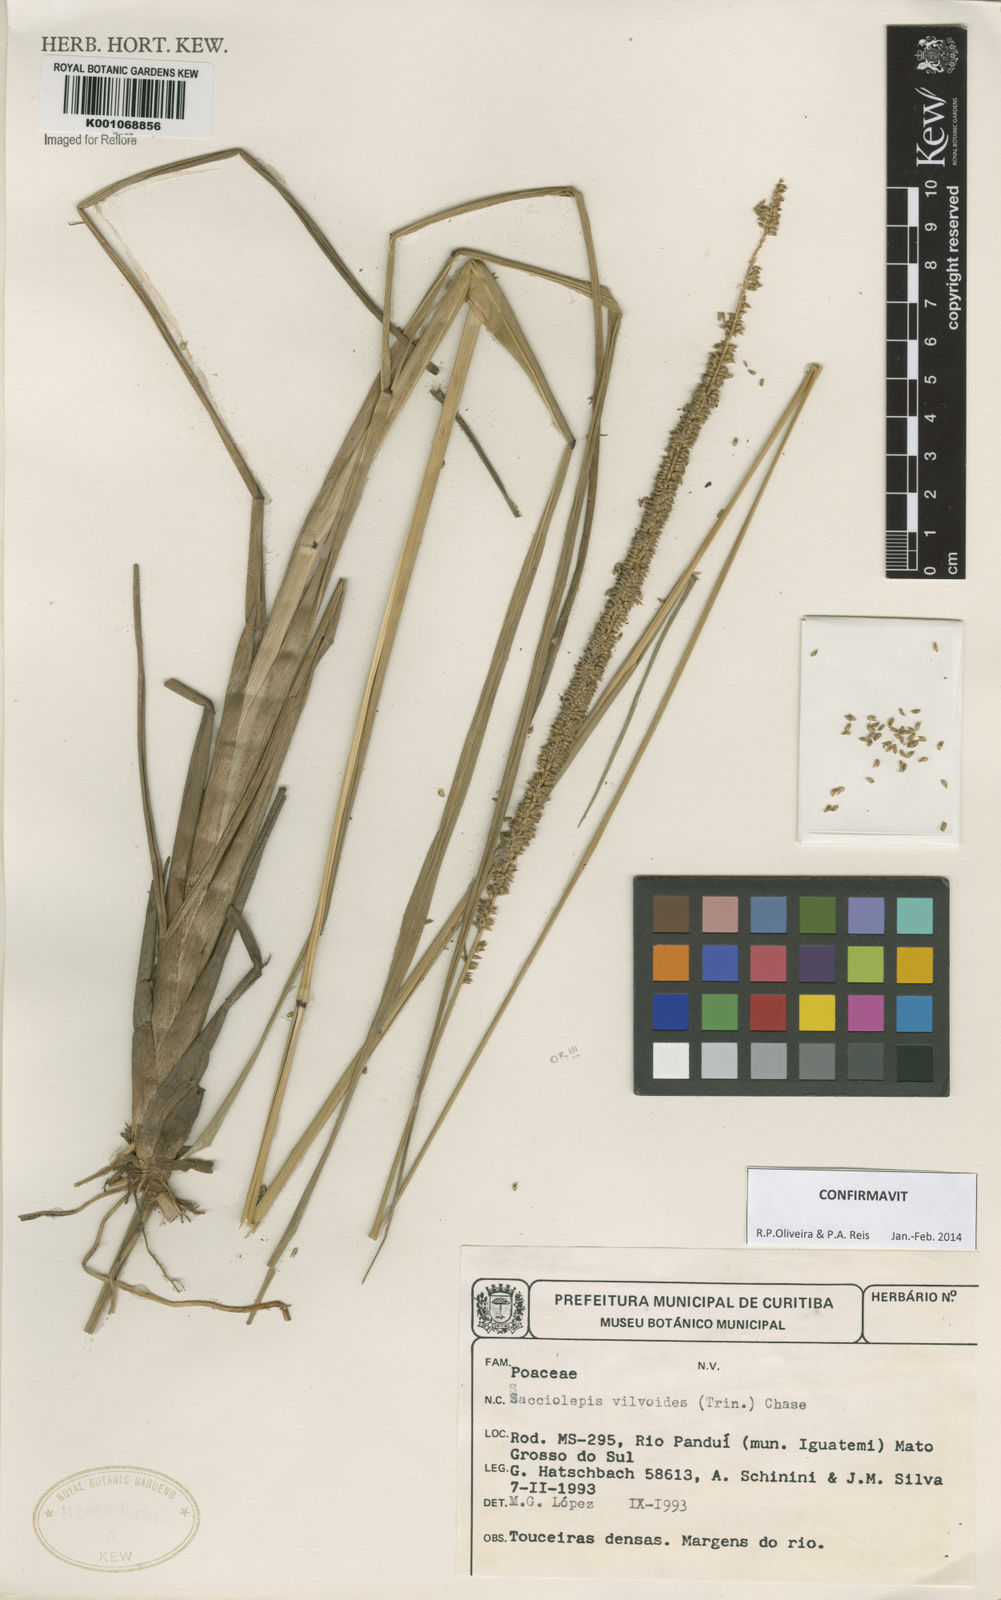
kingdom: Plantae
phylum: Tracheophyta
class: Liliopsida
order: Poales
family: Poaceae
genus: Sacciolepis
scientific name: Sacciolepis vilvoides
